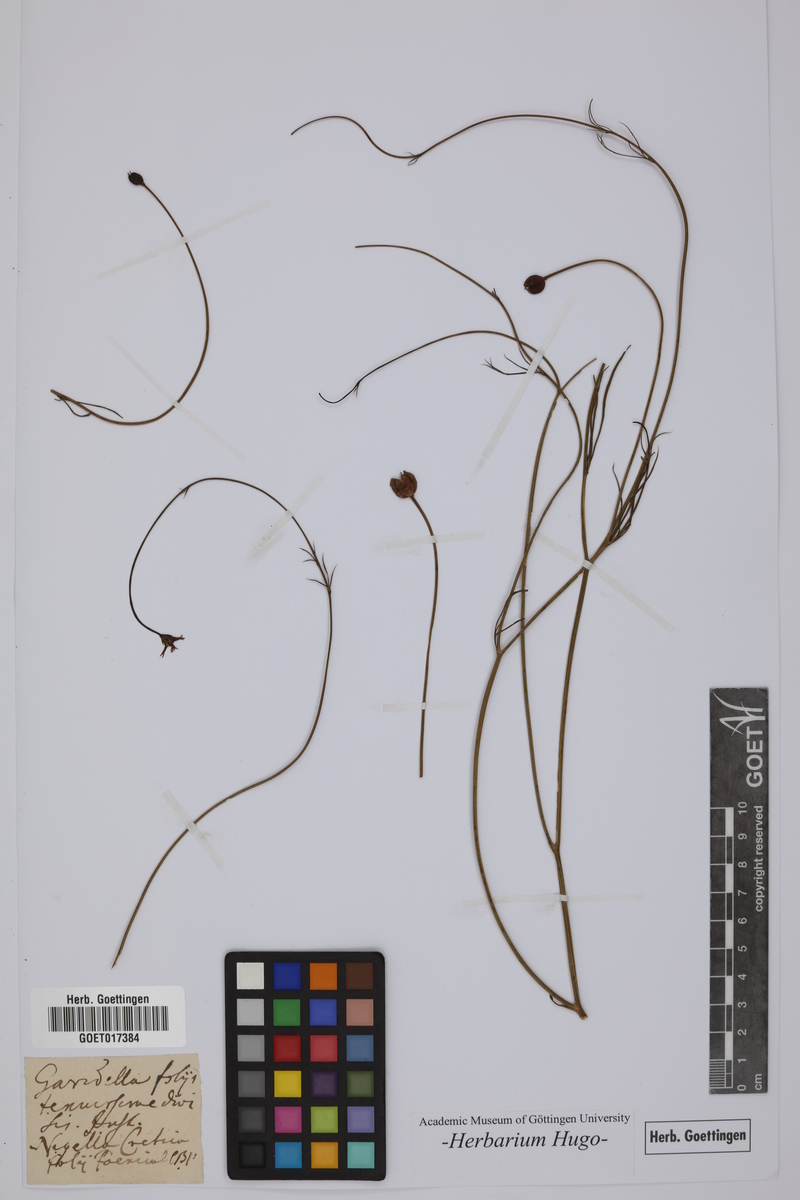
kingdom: Plantae
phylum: Tracheophyta
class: Magnoliopsida
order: Ranunculales
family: Ranunculaceae
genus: Nigella
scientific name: Nigella
